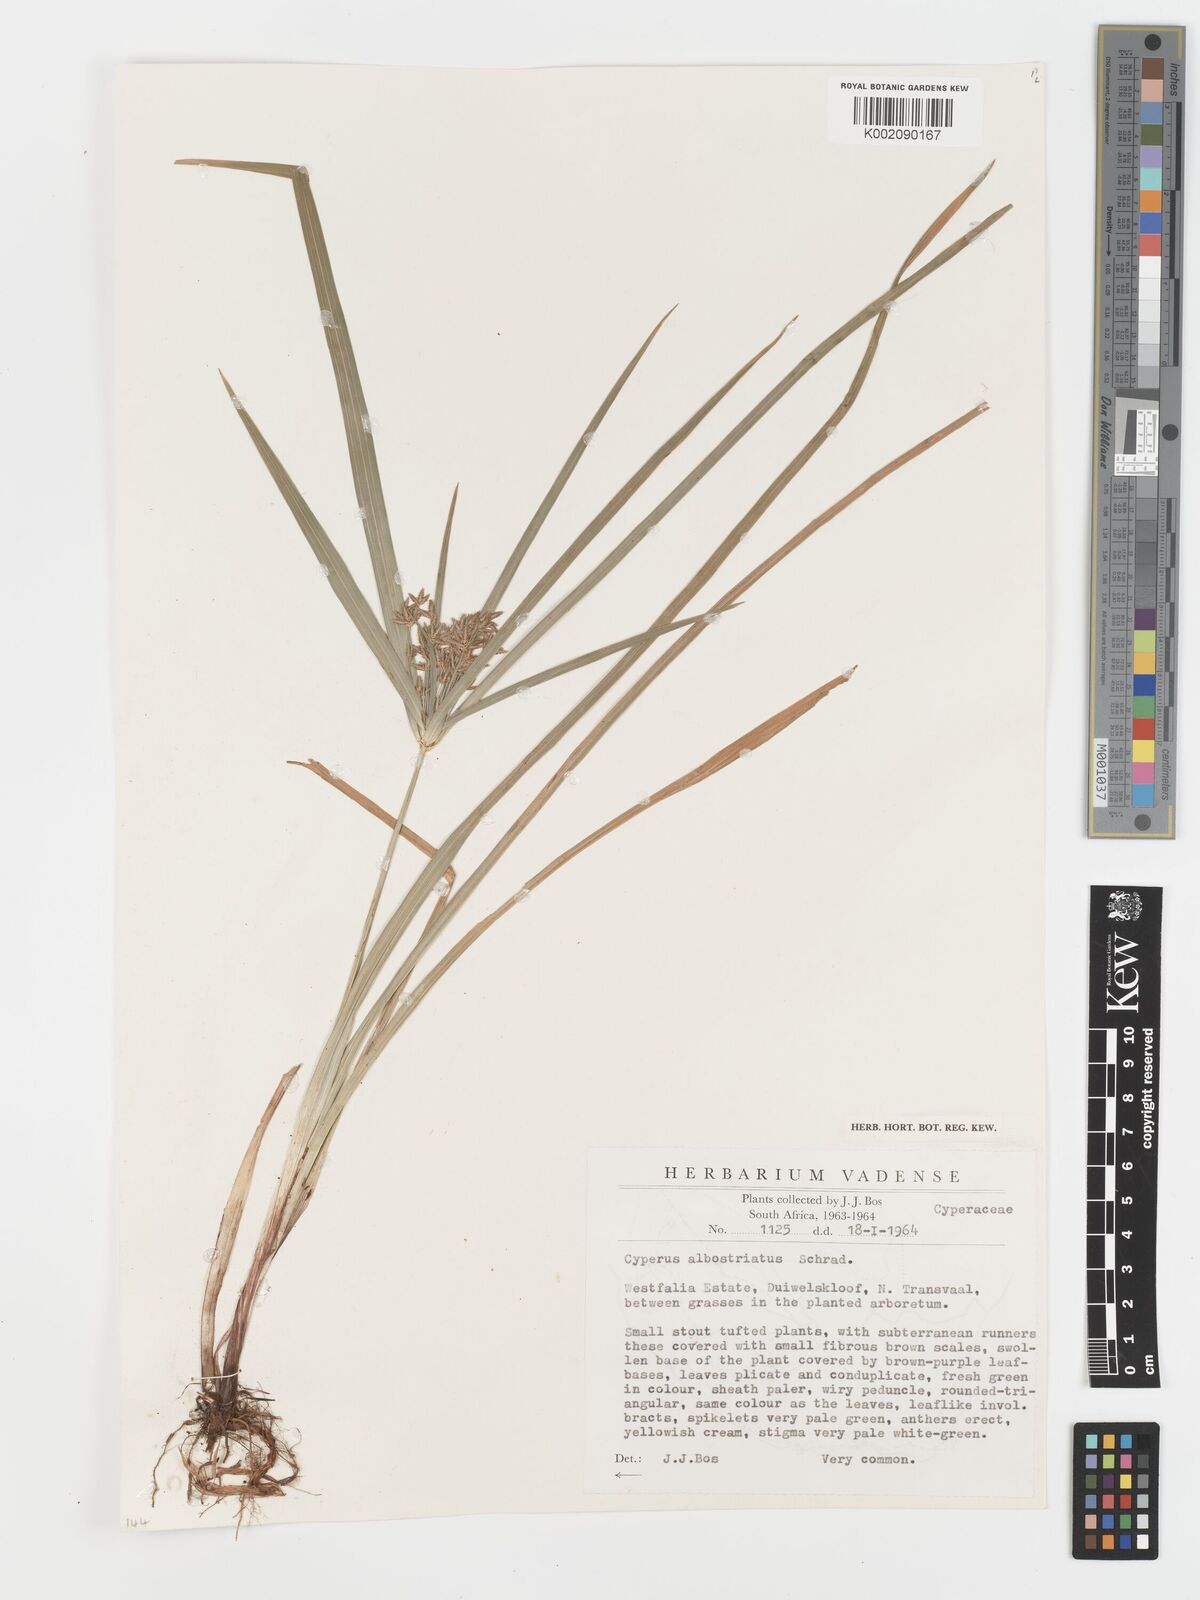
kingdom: Plantae
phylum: Tracheophyta
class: Liliopsida
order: Poales
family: Cyperaceae
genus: Cyperus
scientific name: Cyperus albostriatus
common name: Dwarf umbrella-grass
